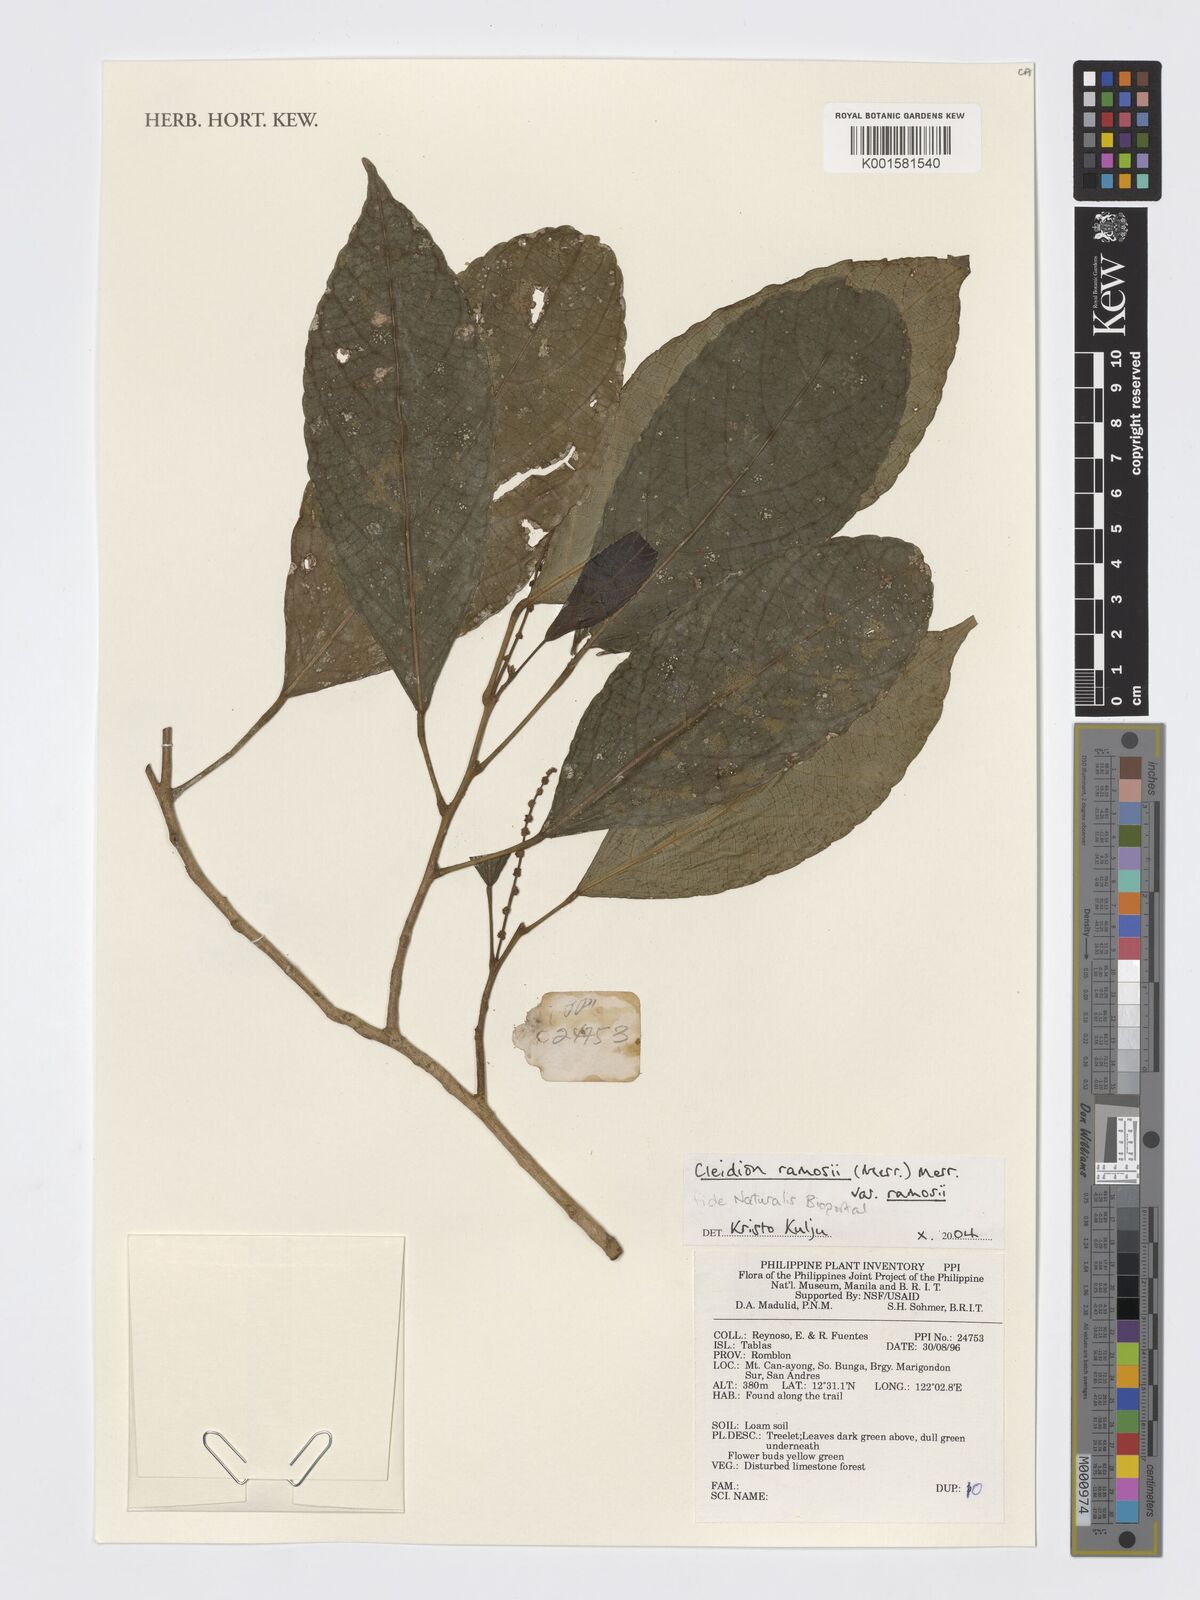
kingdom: Plantae
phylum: Tracheophyta
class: Magnoliopsida
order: Malpighiales
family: Euphorbiaceae
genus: Cleidion
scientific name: Cleidion ramosii
